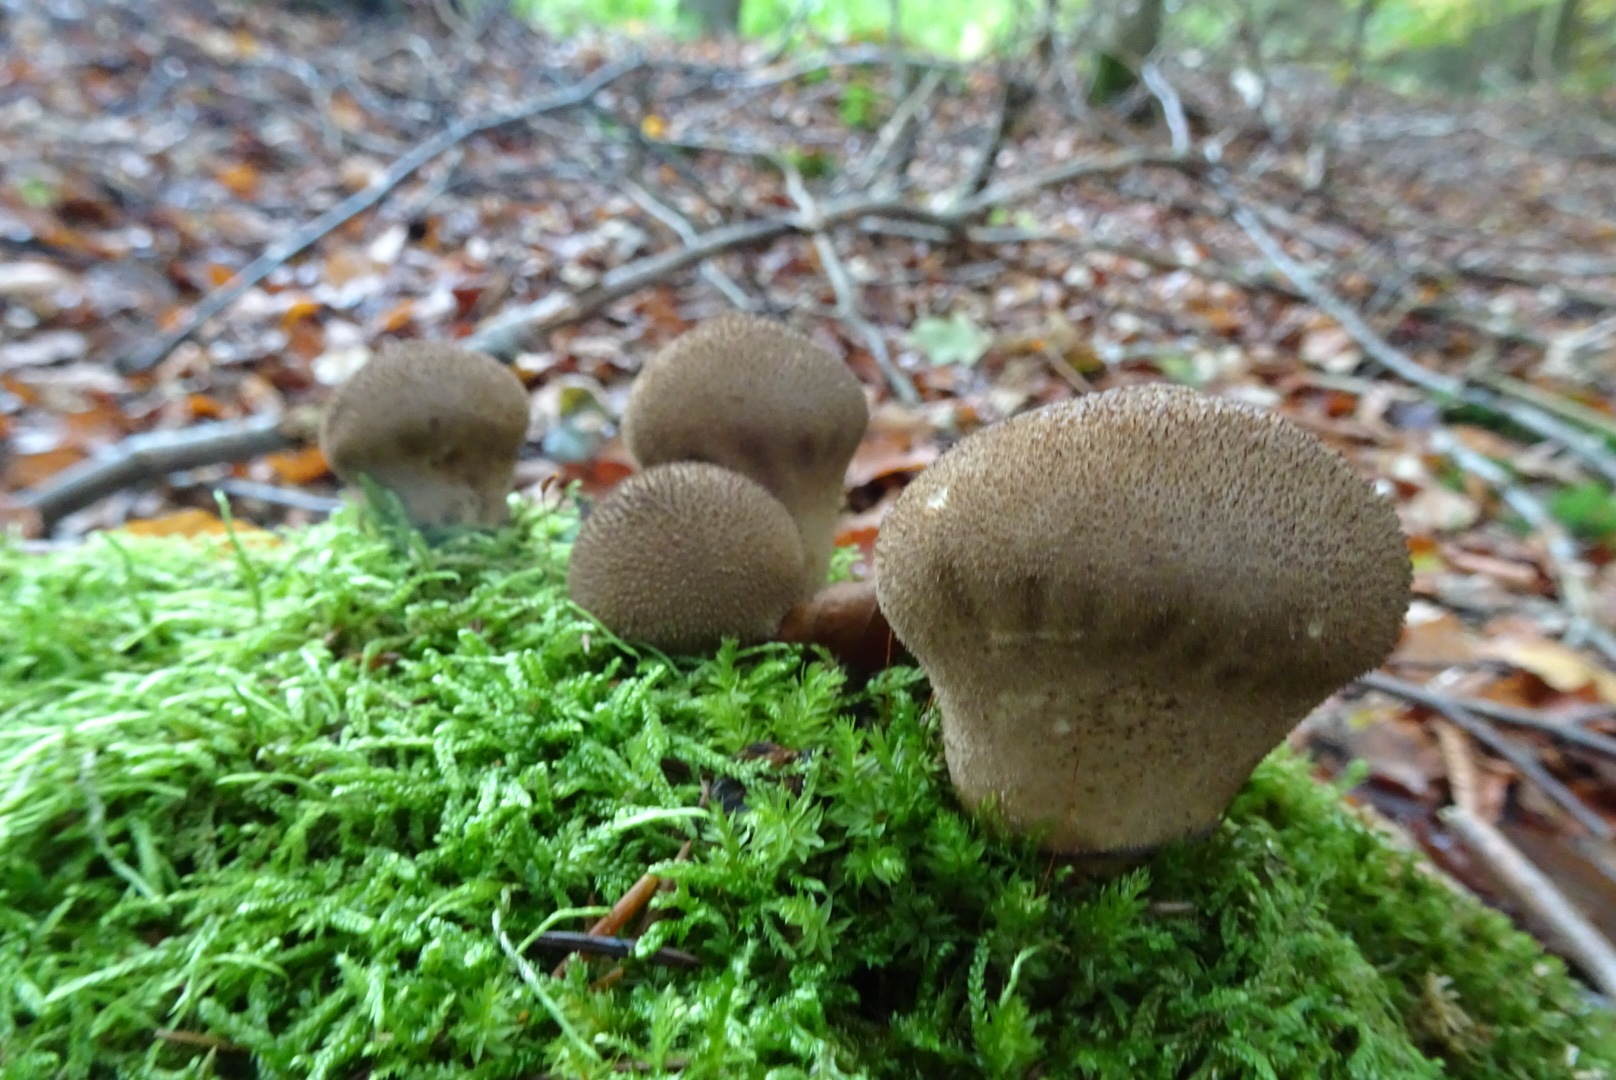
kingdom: Fungi
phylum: Basidiomycota
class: Agaricomycetes
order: Agaricales
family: Lycoperdaceae
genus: Lycoperdon
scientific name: Lycoperdon nigrescens
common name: sortagtig støvbold
